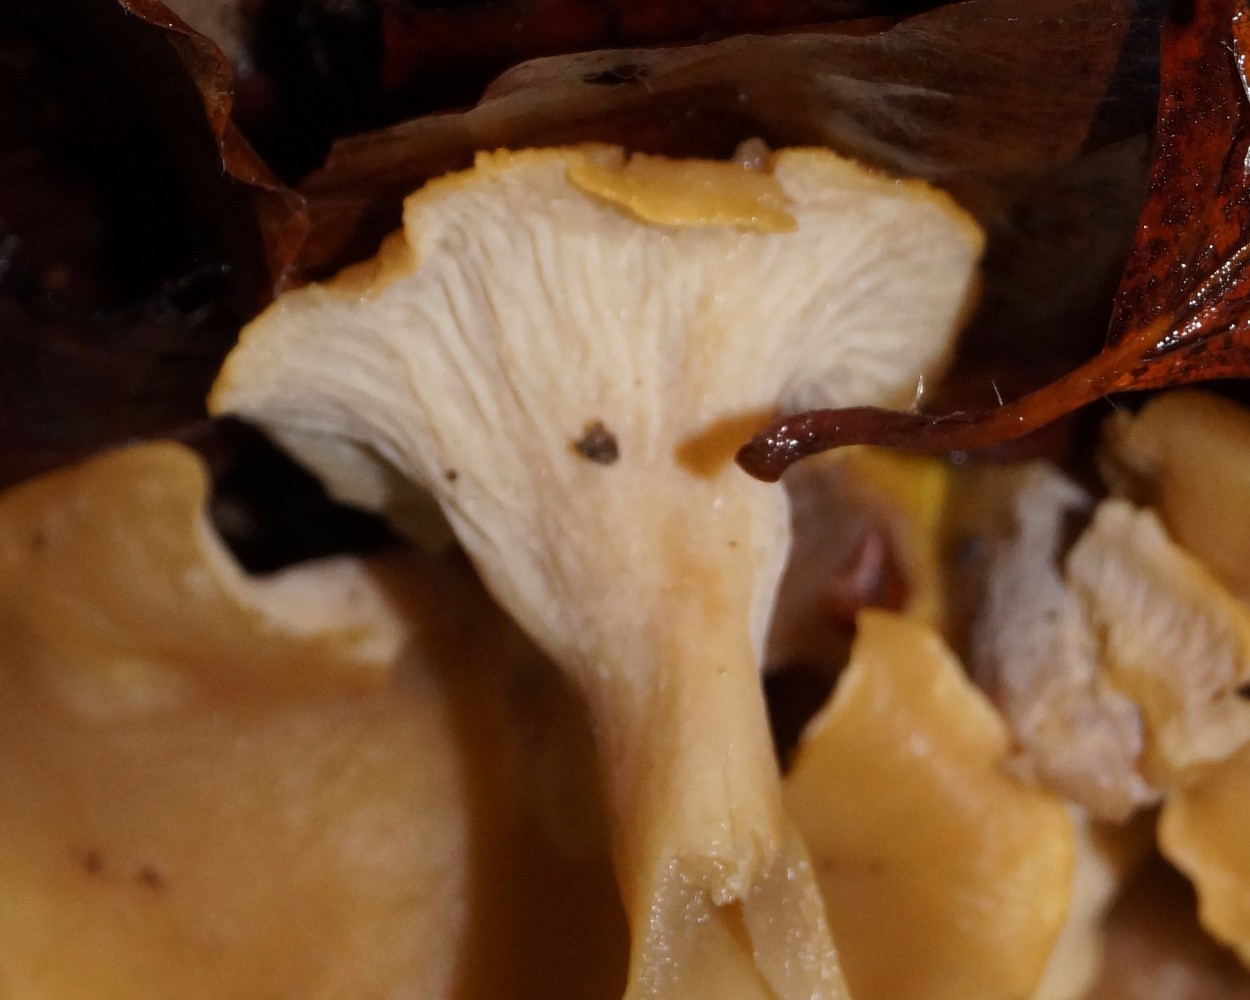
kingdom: Fungi
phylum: Basidiomycota
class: Agaricomycetes
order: Cantharellales
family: Hydnaceae
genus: Cantharellus
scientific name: Cantharellus melanoxeros
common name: sværtende kantarel
